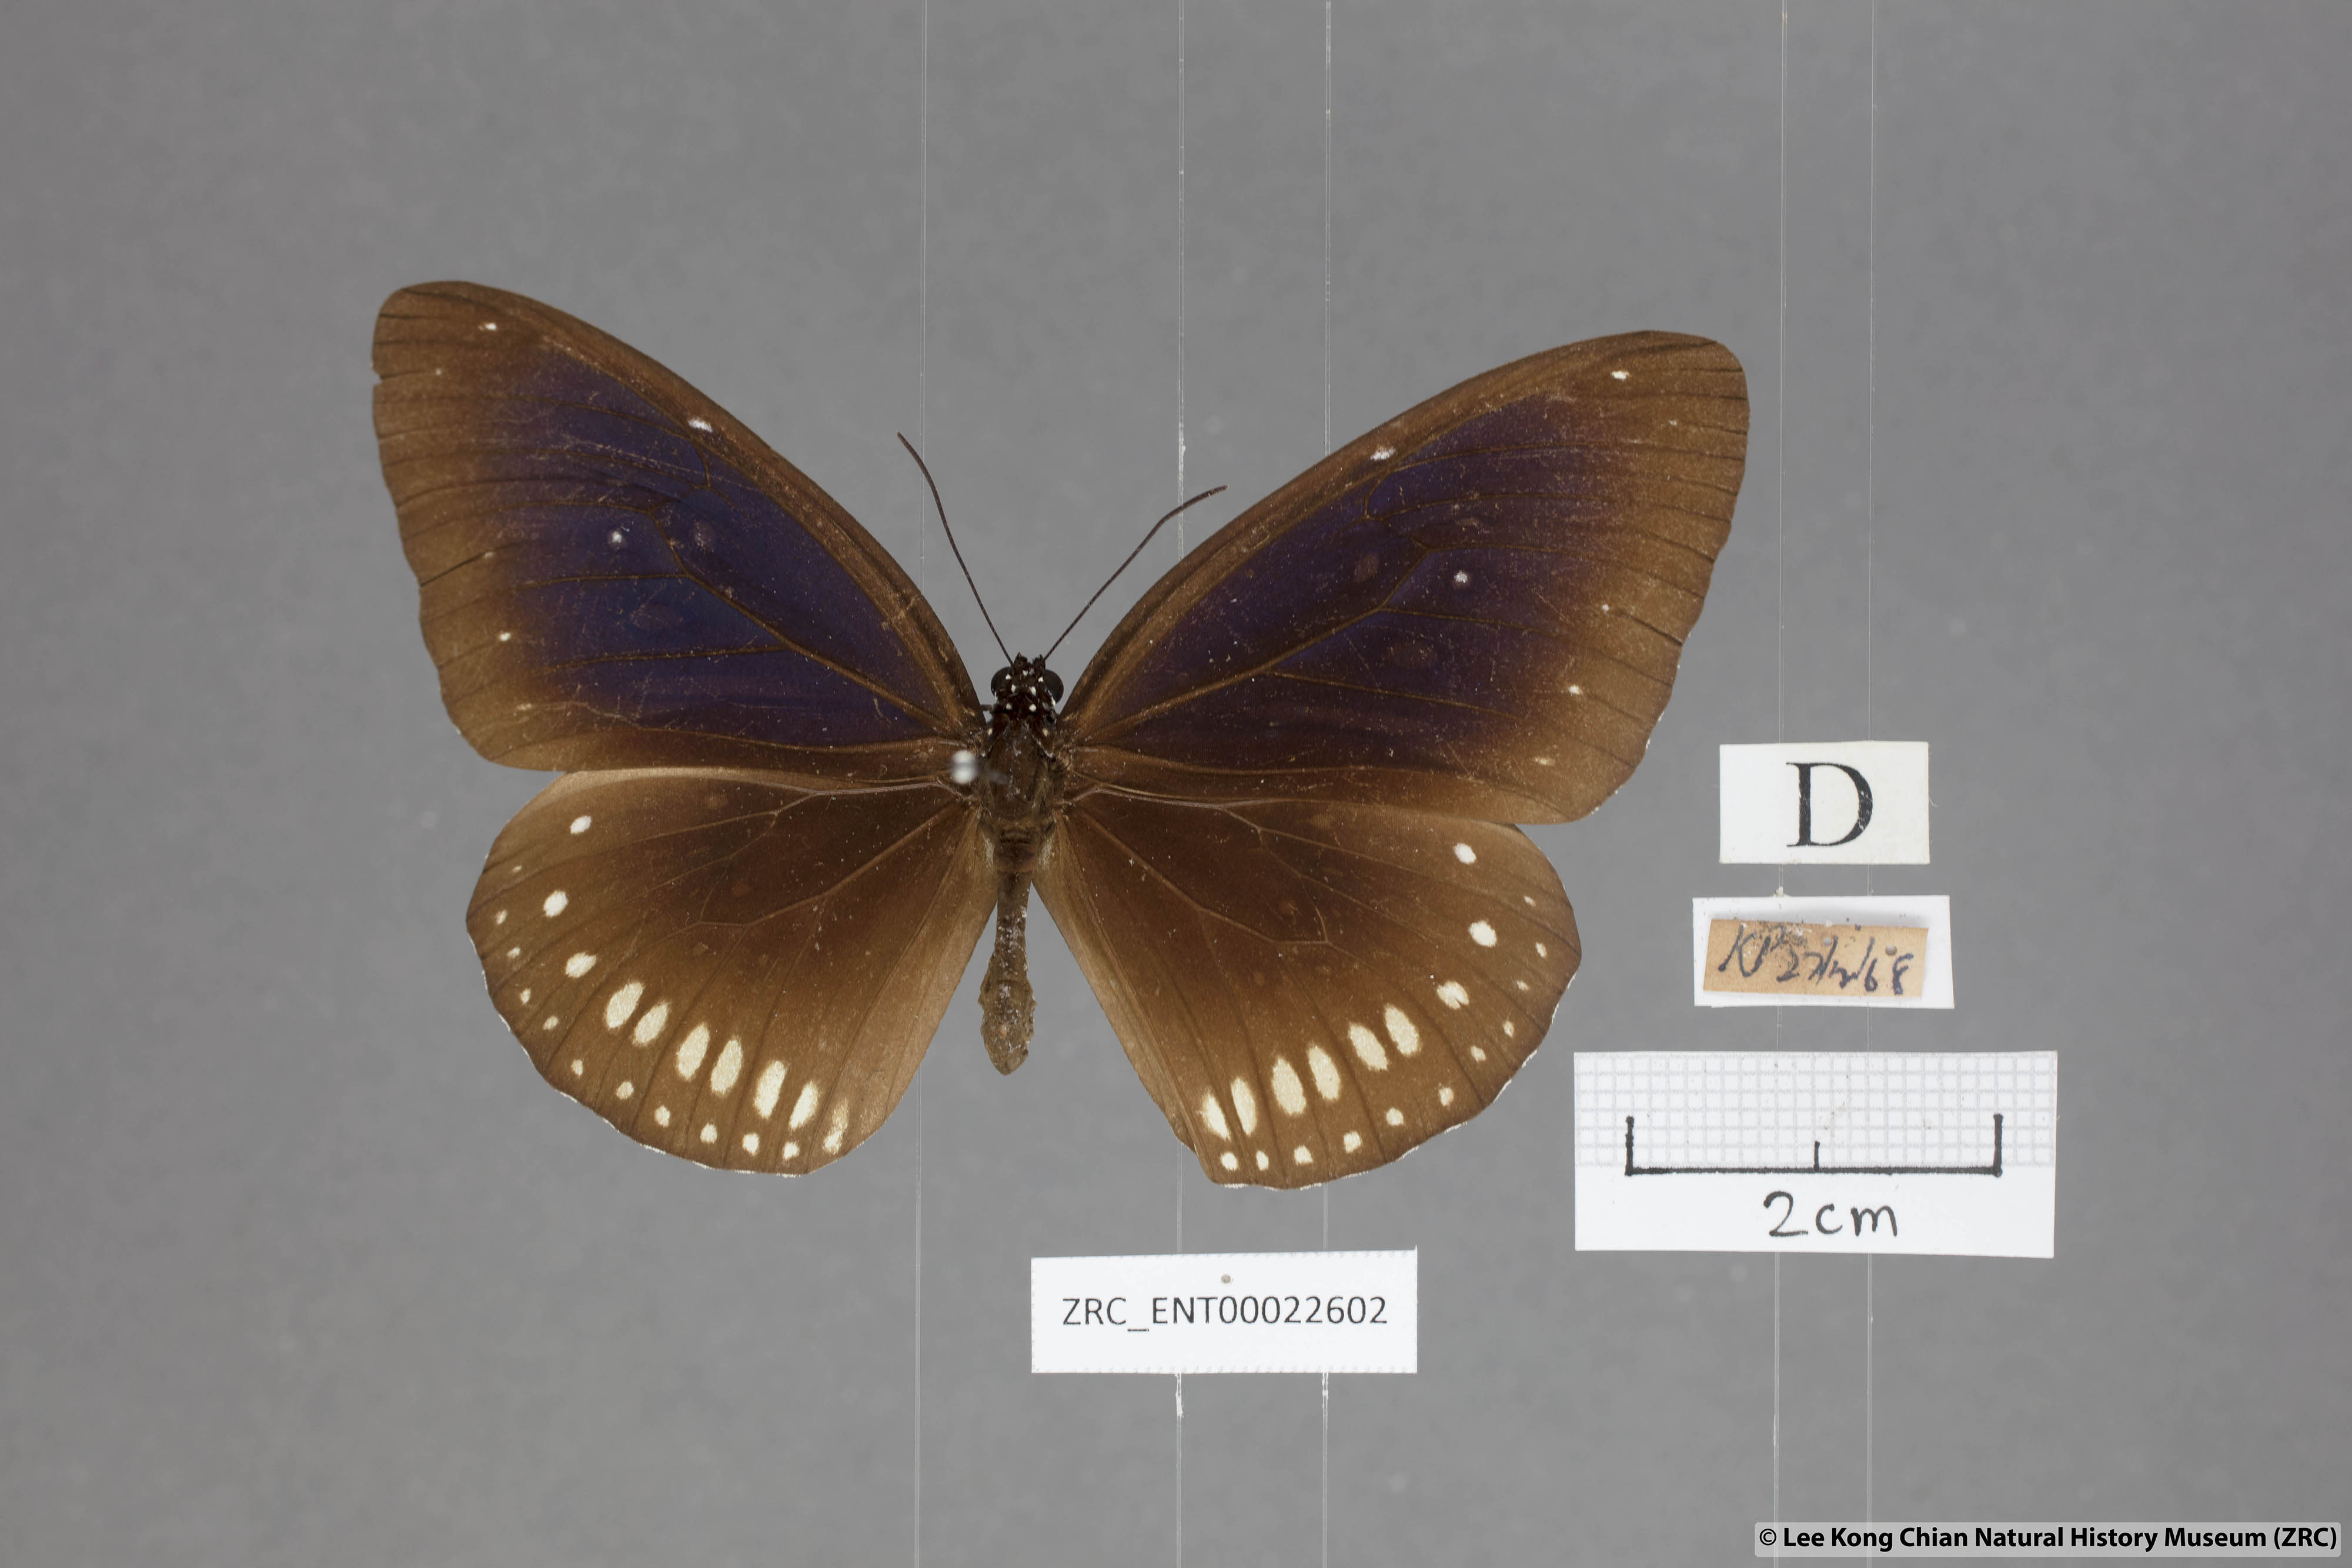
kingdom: Animalia
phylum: Arthropoda
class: Insecta
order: Lepidoptera
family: Nymphalidae
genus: Euploea
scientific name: Euploea modesta
